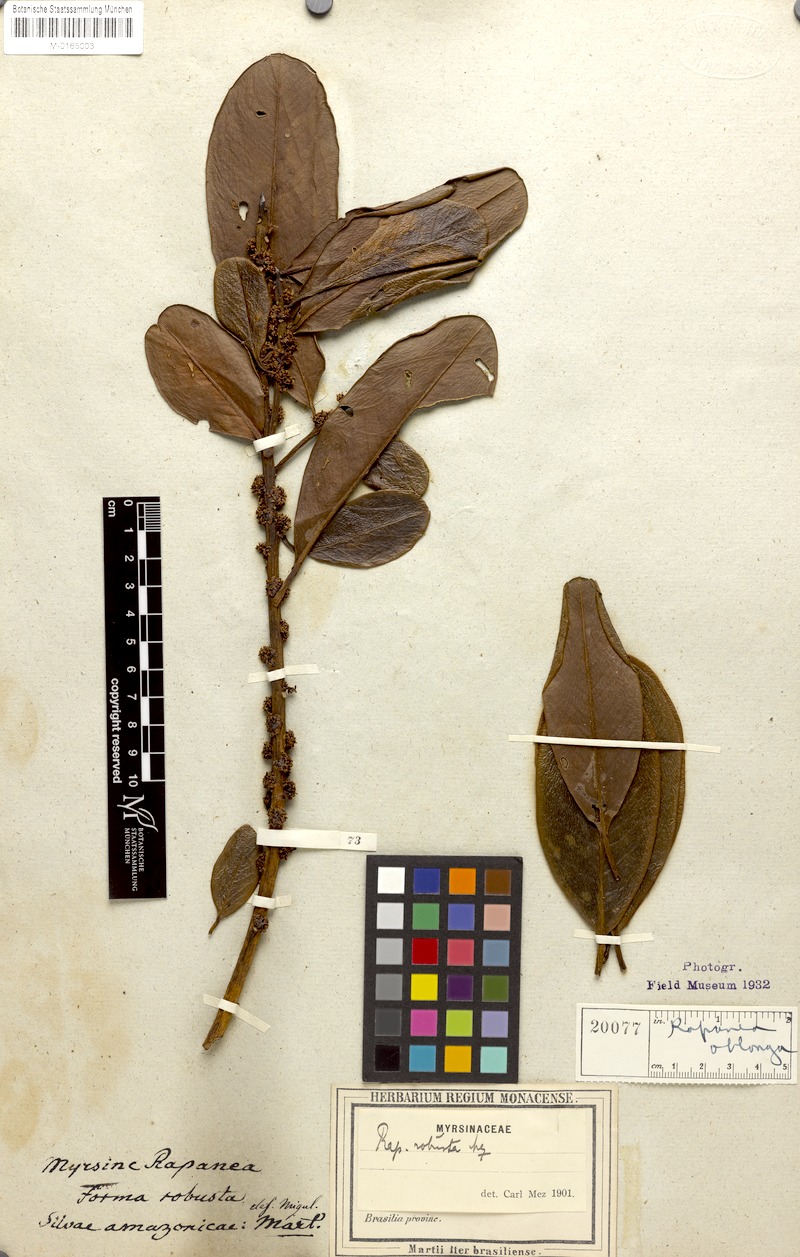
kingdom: Plantae
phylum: Tracheophyta
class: Magnoliopsida
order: Ericales
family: Primulaceae
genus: Myrsine
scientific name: Myrsine guianensis
